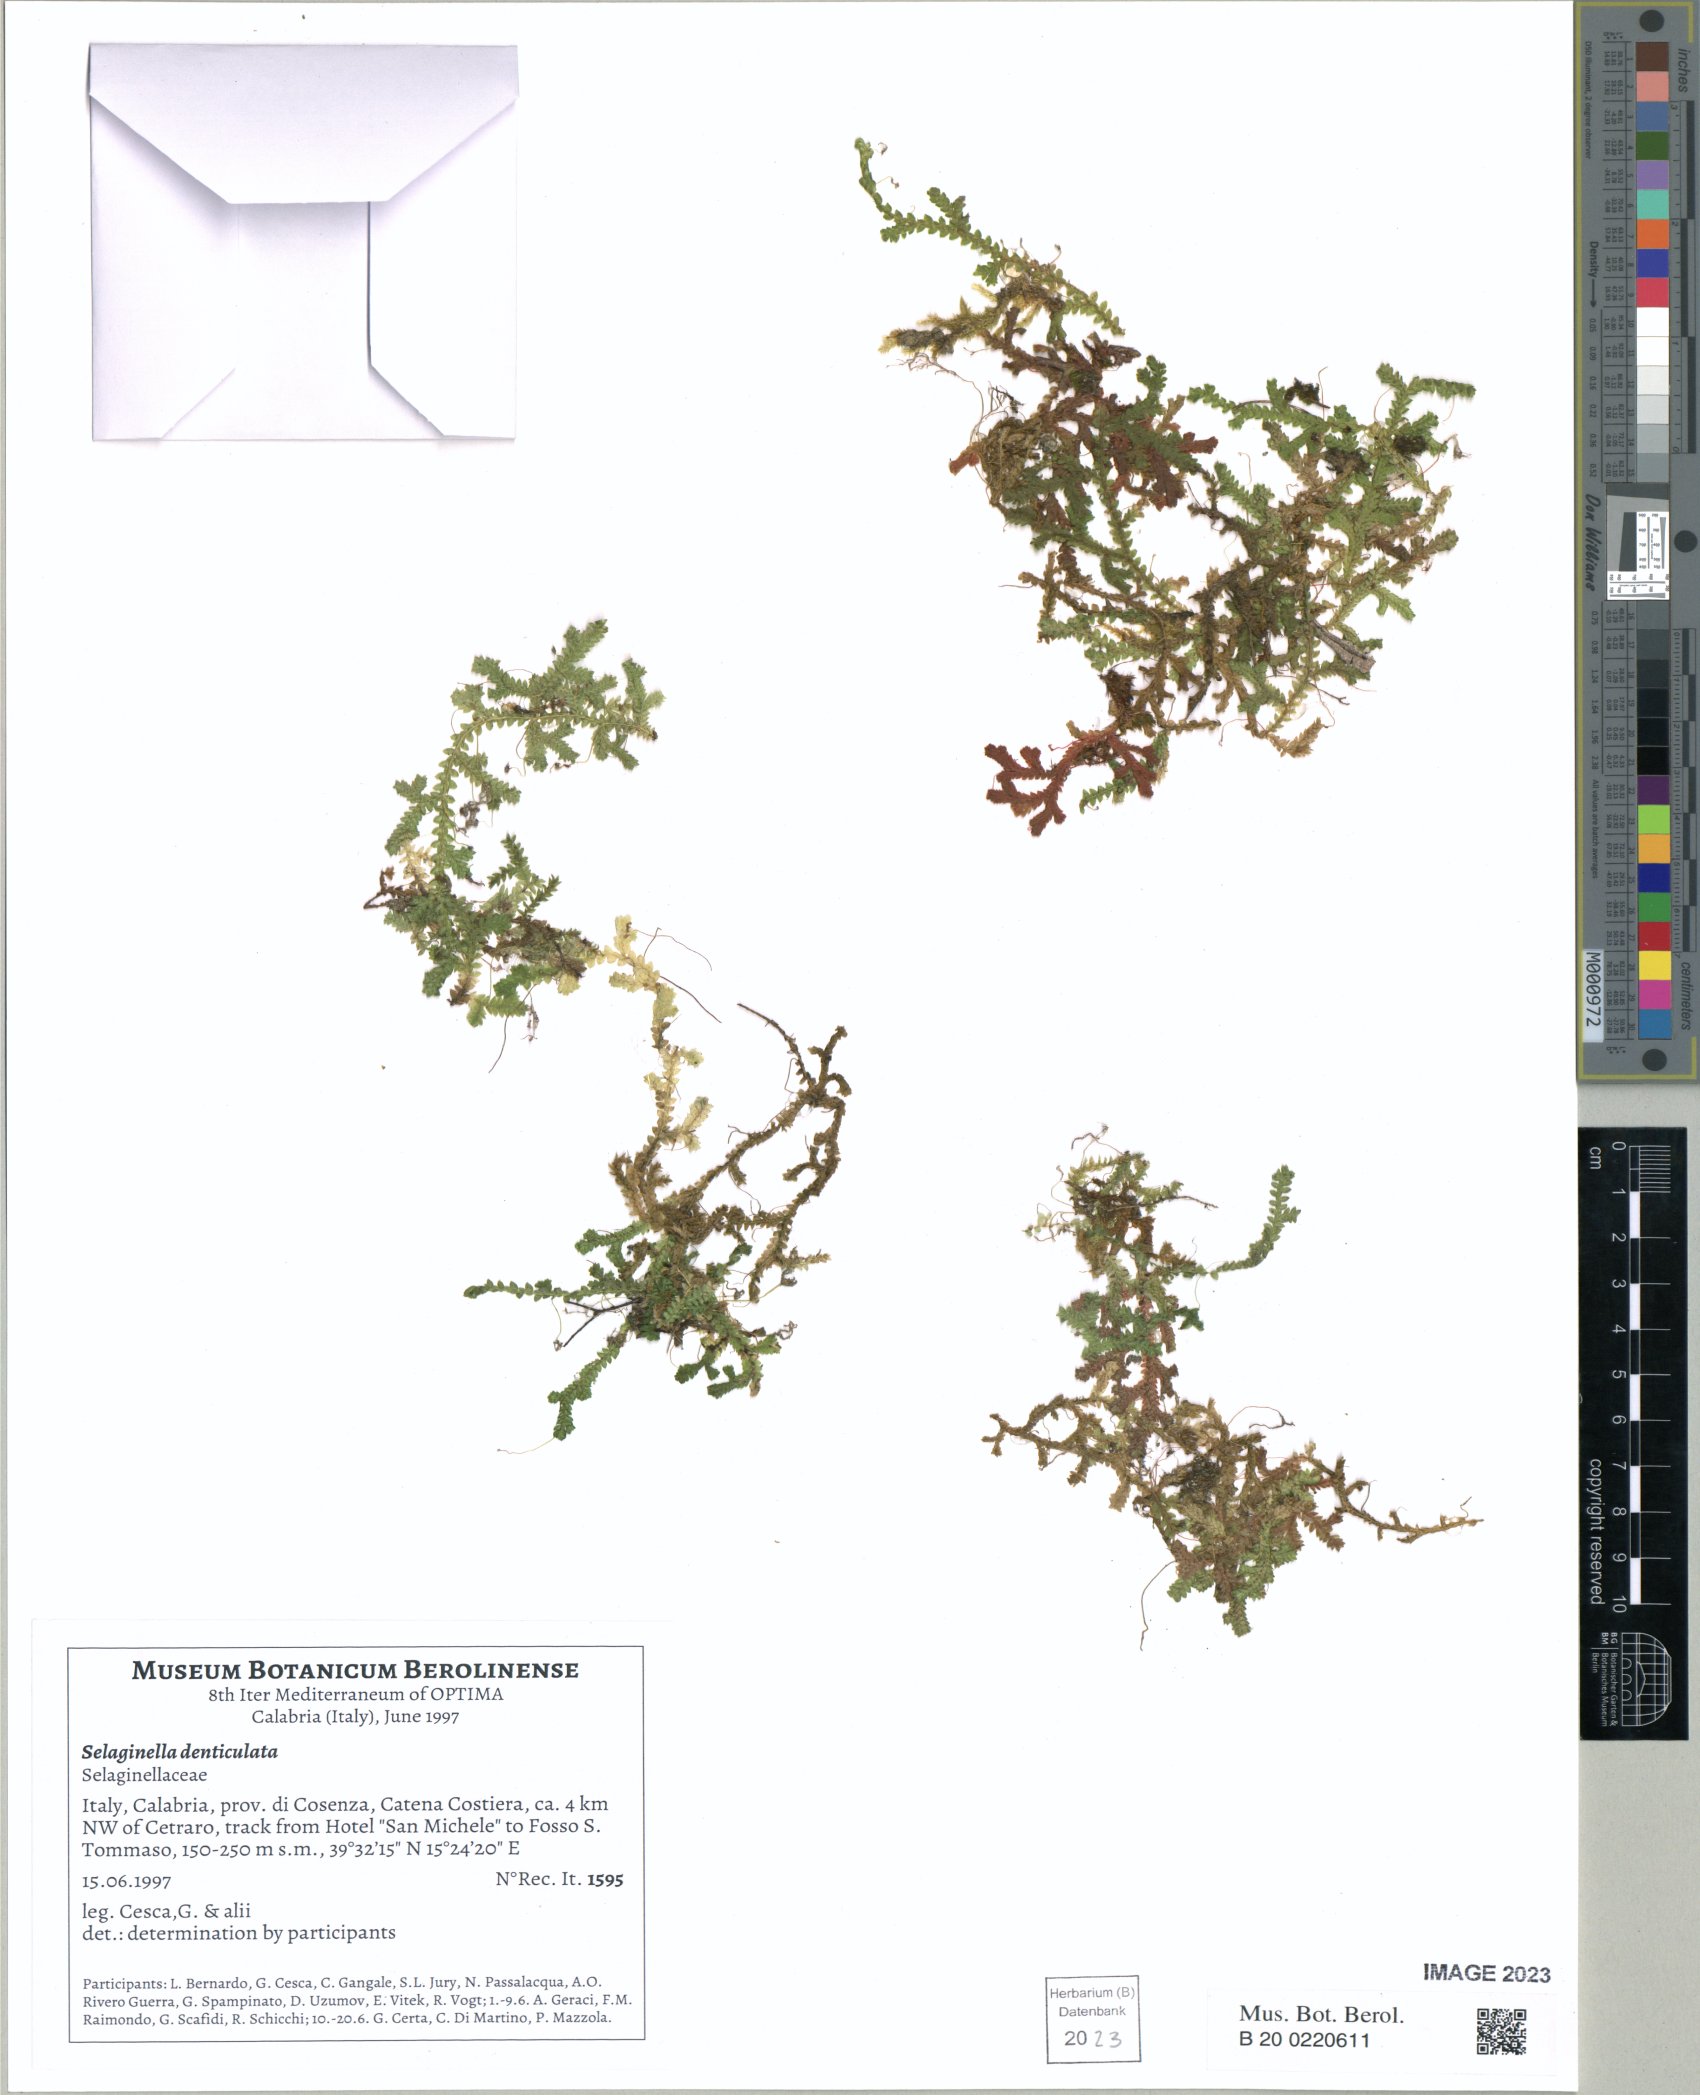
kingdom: Plantae
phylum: Tracheophyta
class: Lycopodiopsida
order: Selaginellales
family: Selaginellaceae
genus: Selaginella
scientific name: Selaginella denticulata
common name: Toothed-leaved clubmoss
